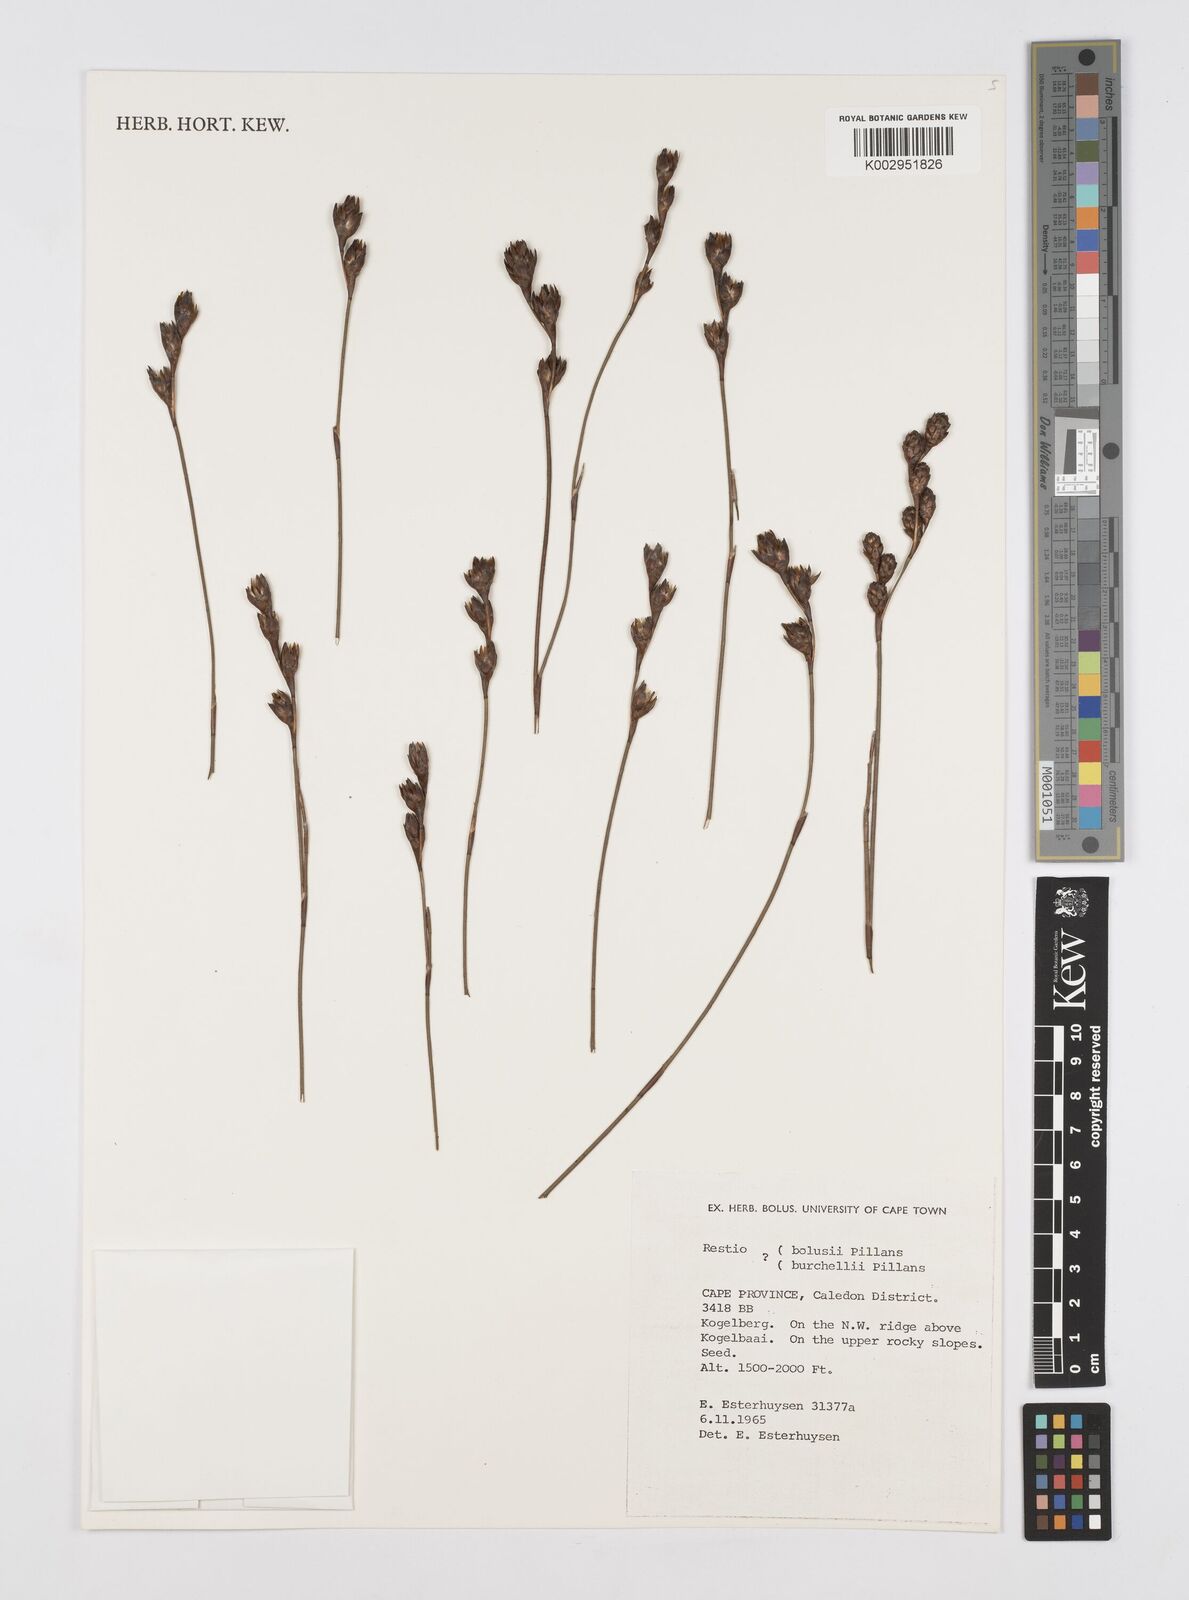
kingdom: Plantae
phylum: Tracheophyta
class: Liliopsida
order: Poales
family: Restionaceae
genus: Restio
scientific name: Restio
